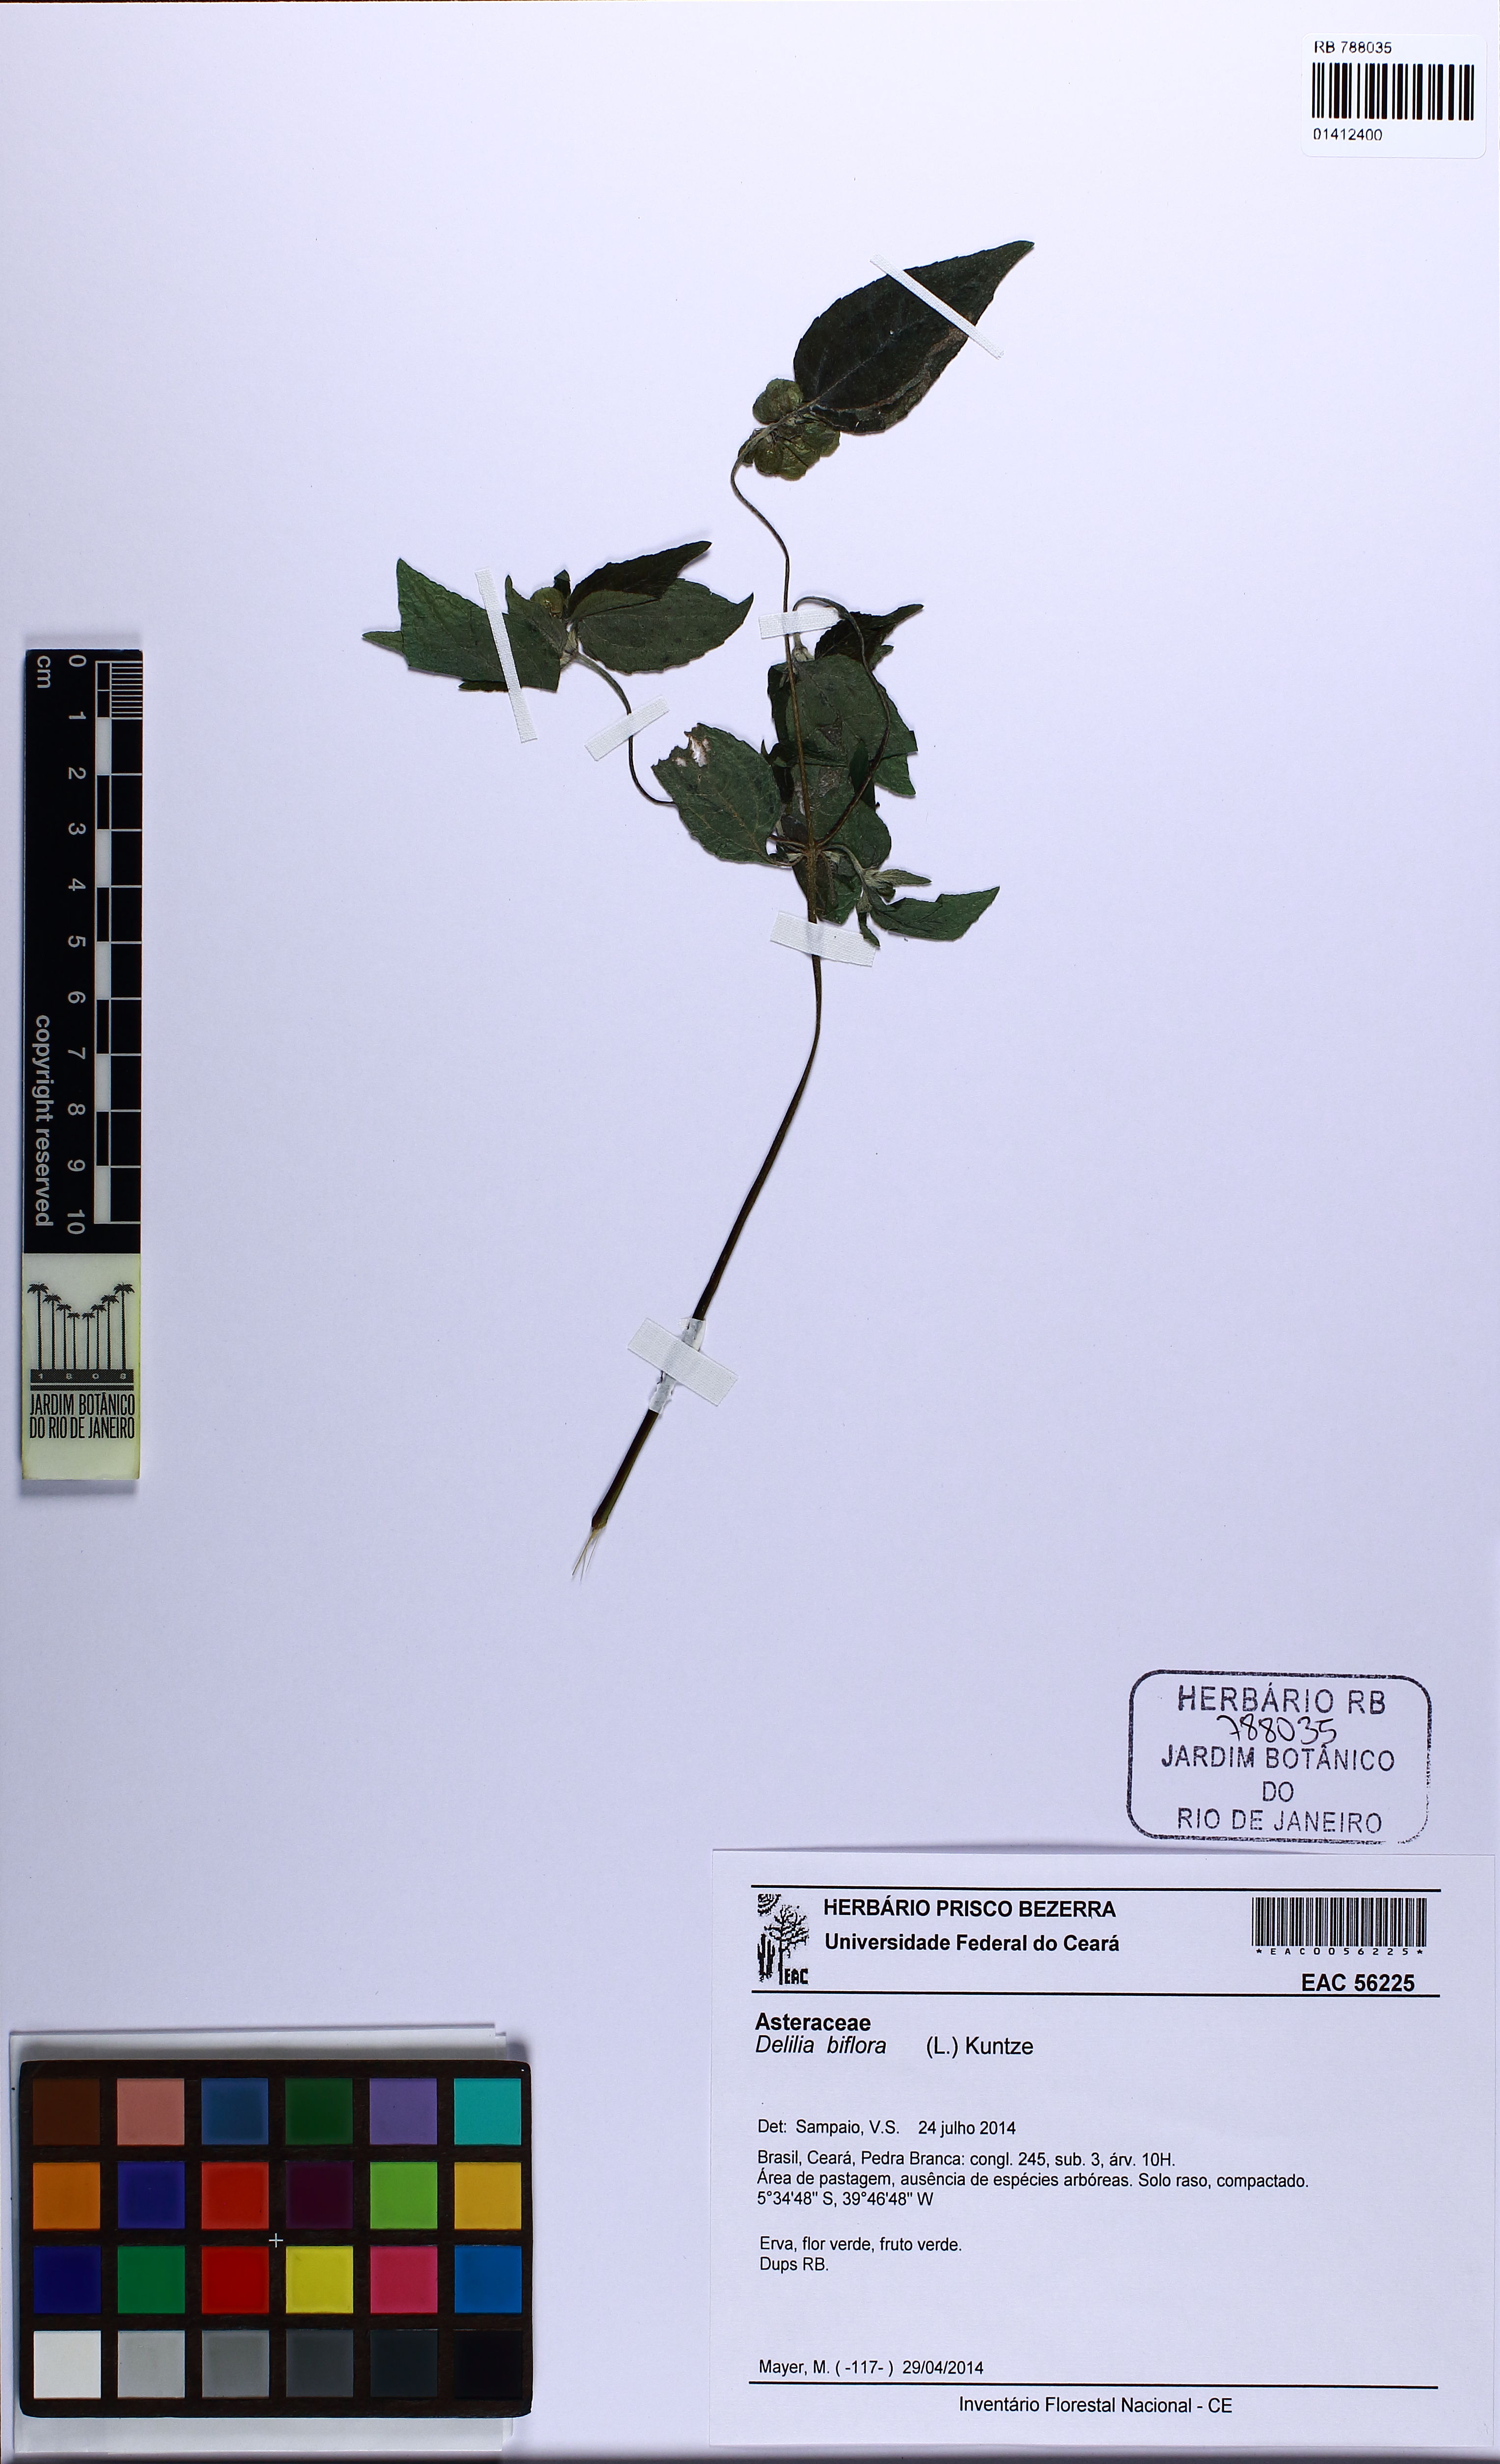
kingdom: Plantae
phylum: Tracheophyta
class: Magnoliopsida
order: Asterales
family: Asteraceae
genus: Delilia
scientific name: Delilia biflora
